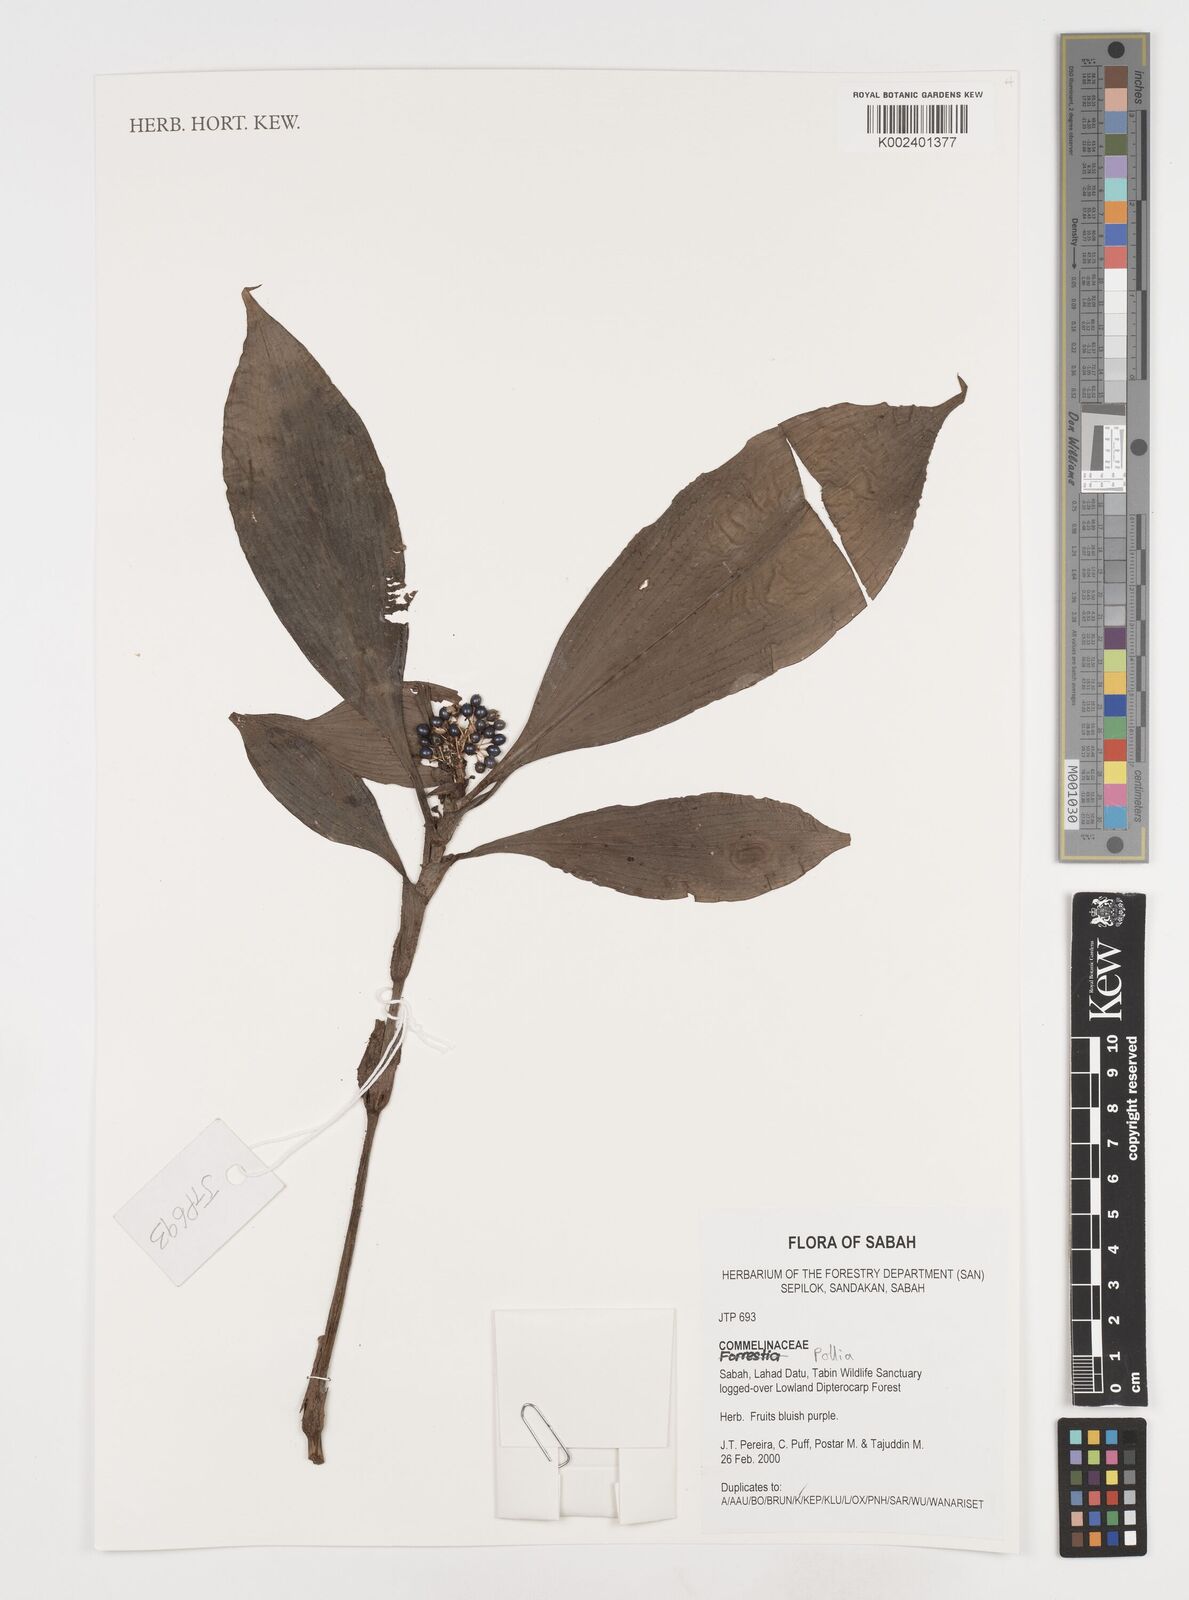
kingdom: Plantae
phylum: Tracheophyta
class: Liliopsida
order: Commelinales
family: Commelinaceae
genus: Pollia
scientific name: Pollia
